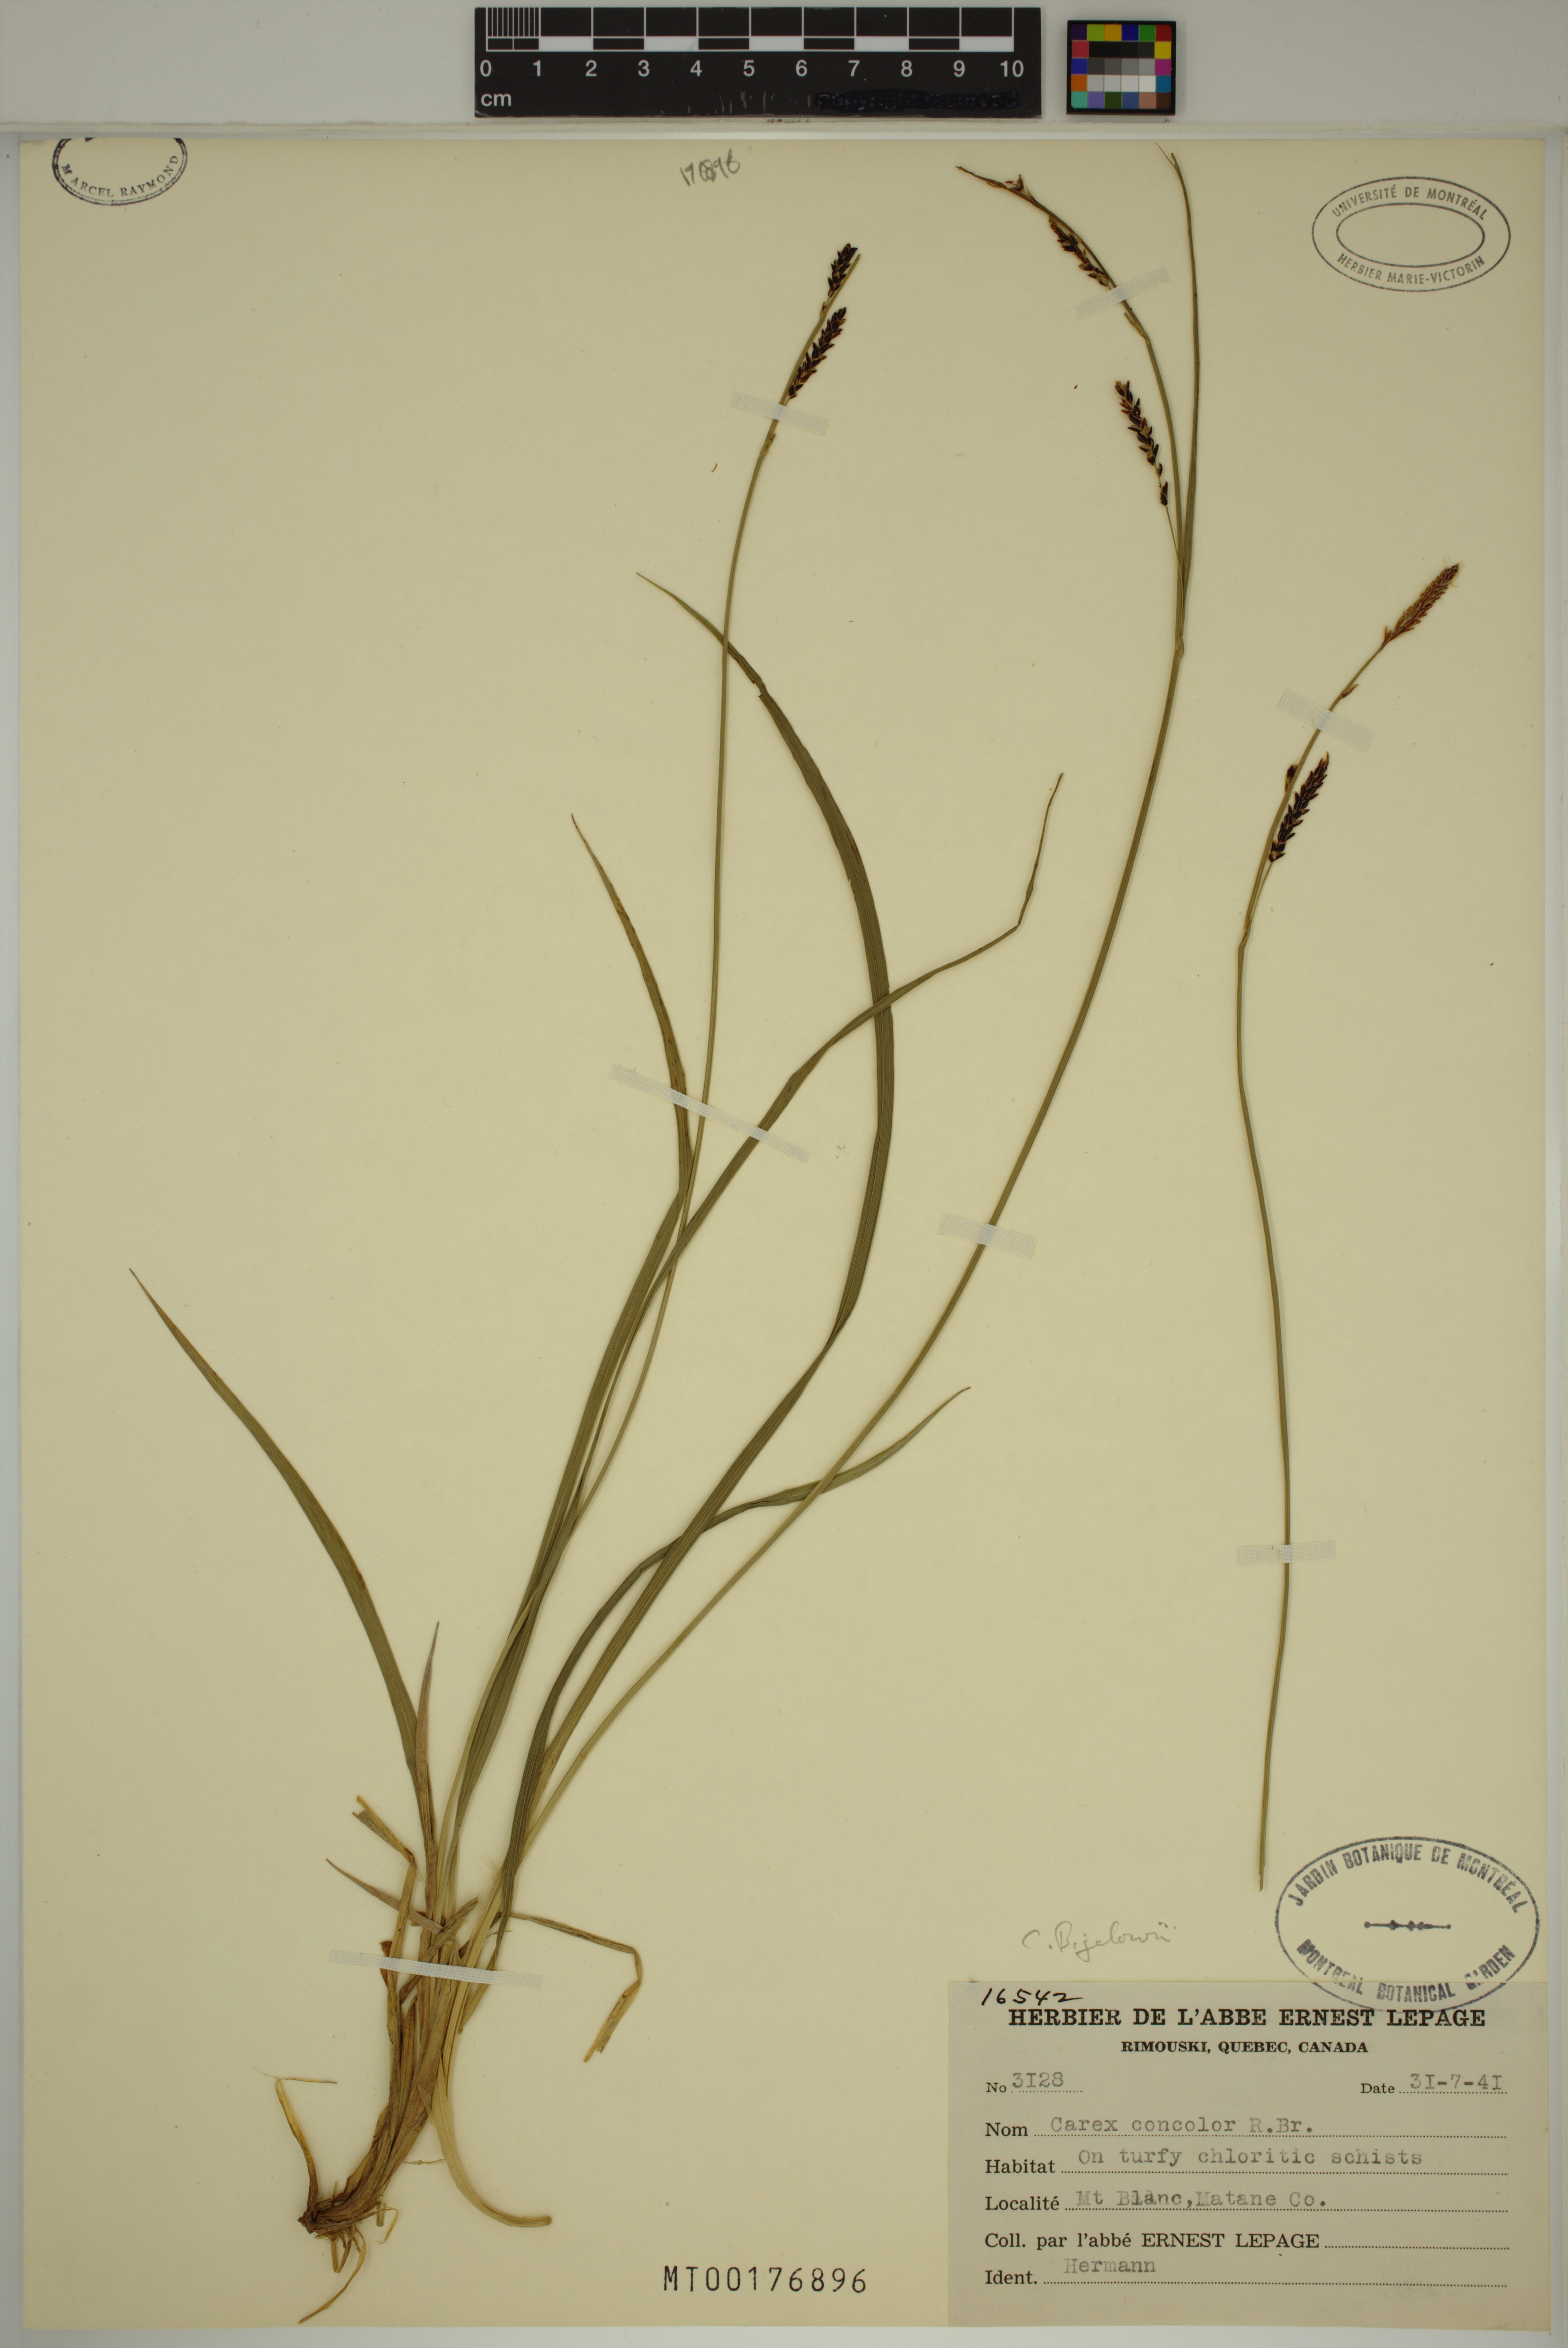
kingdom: Plantae
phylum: Tracheophyta
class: Liliopsida
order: Poales
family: Cyperaceae
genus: Carex
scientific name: Carex bigelowii
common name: Stiff sedge
